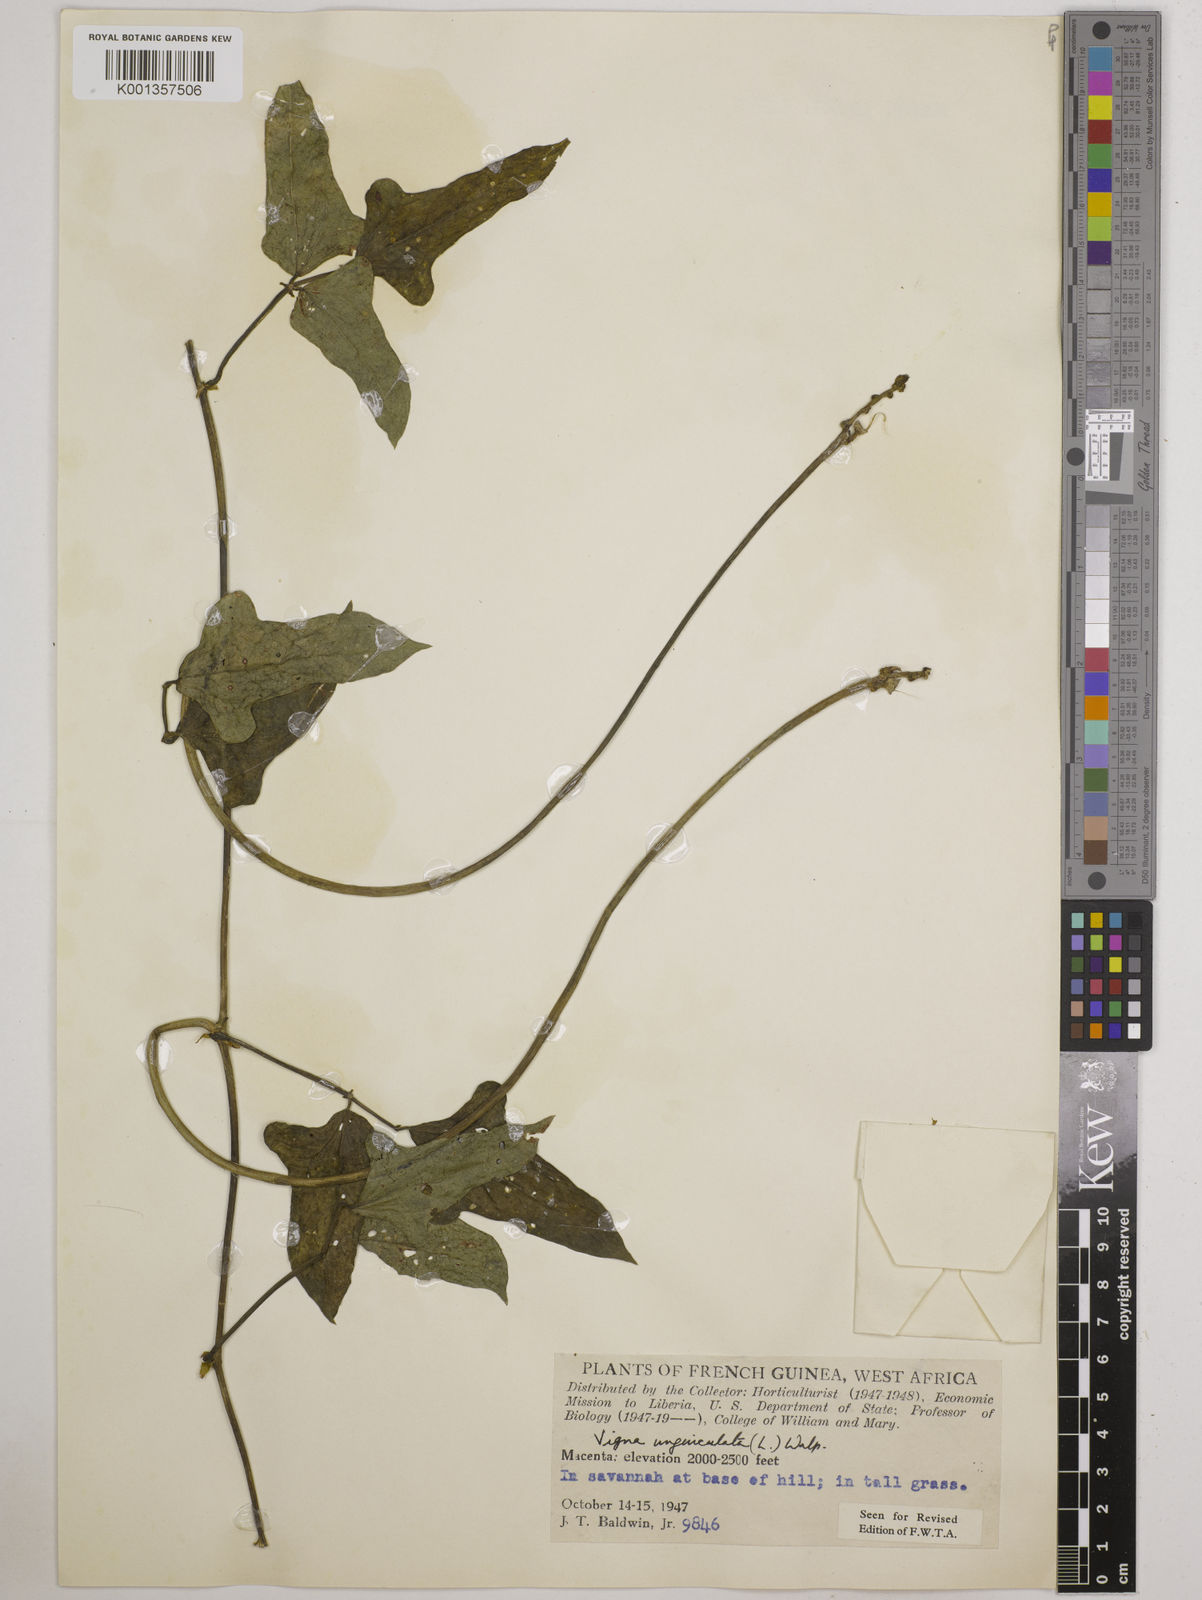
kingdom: Plantae
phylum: Tracheophyta
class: Magnoliopsida
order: Fabales
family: Fabaceae
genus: Vigna
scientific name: Vigna
